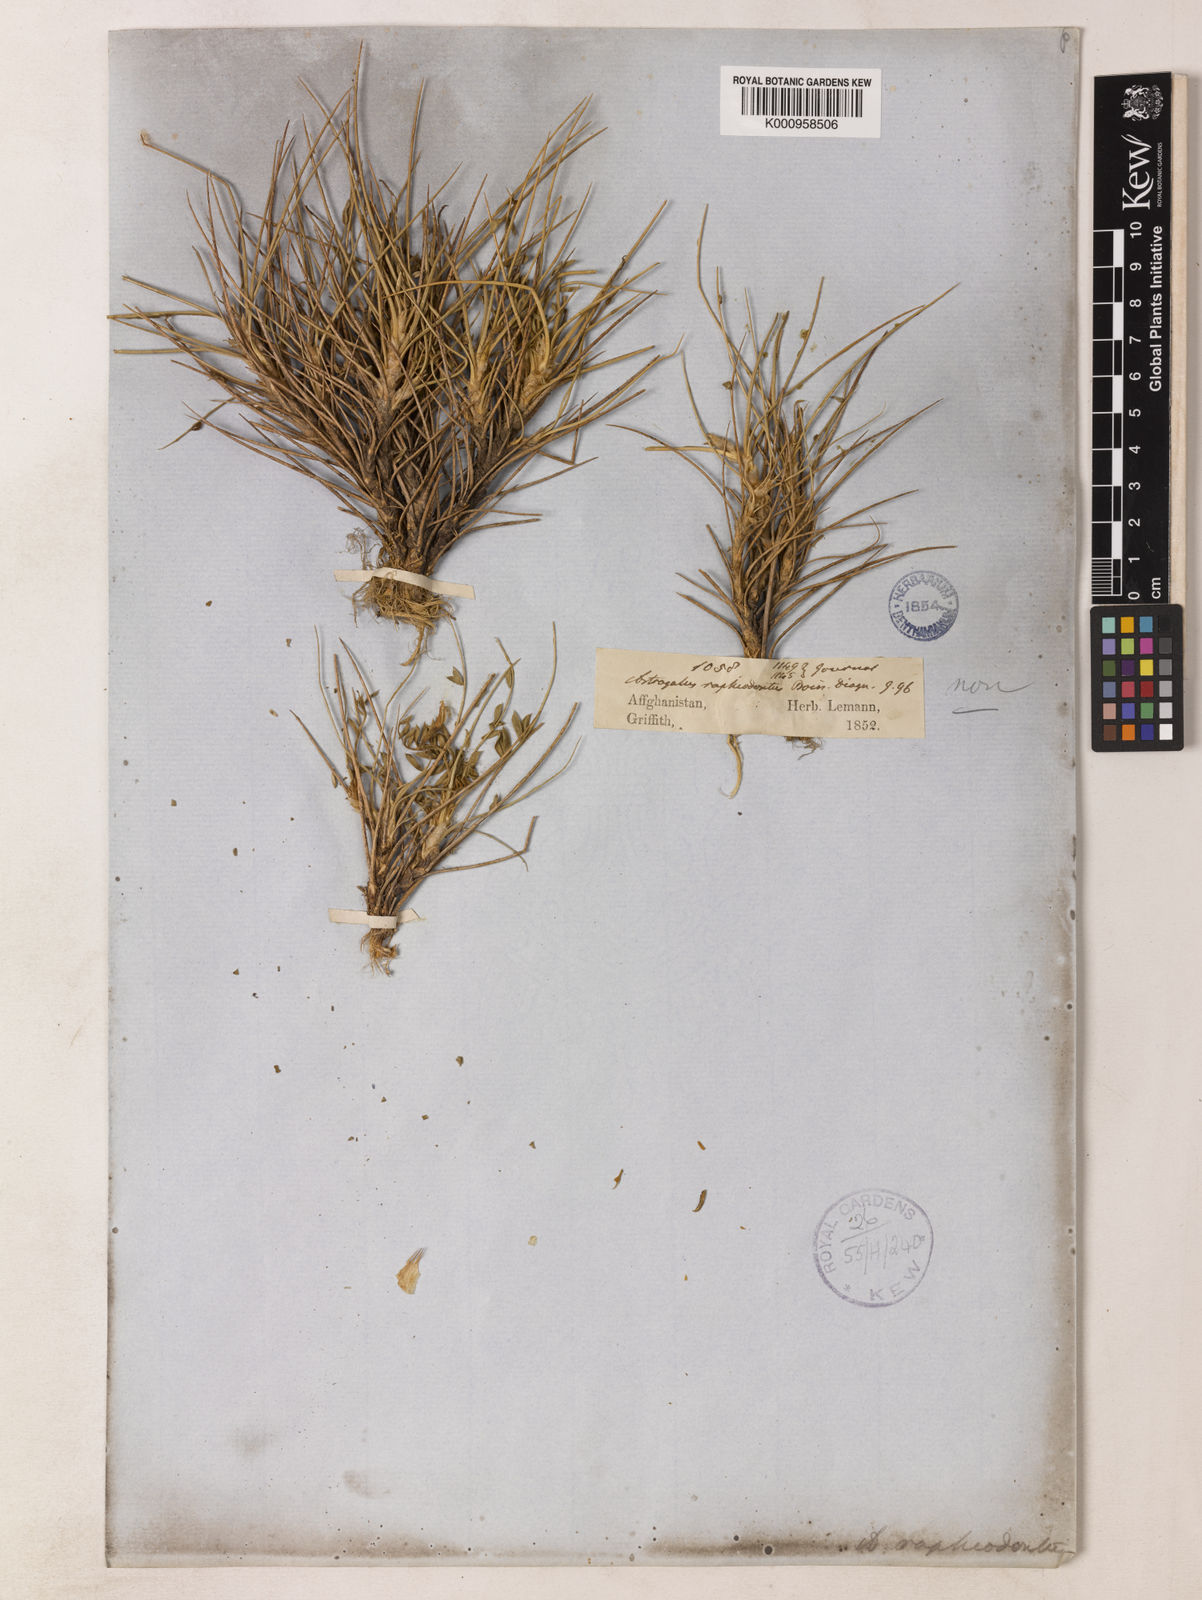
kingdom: Plantae
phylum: Tracheophyta
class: Magnoliopsida
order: Fabales
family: Fabaceae
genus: Astragalus
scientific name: Astragalus raphiodontus
